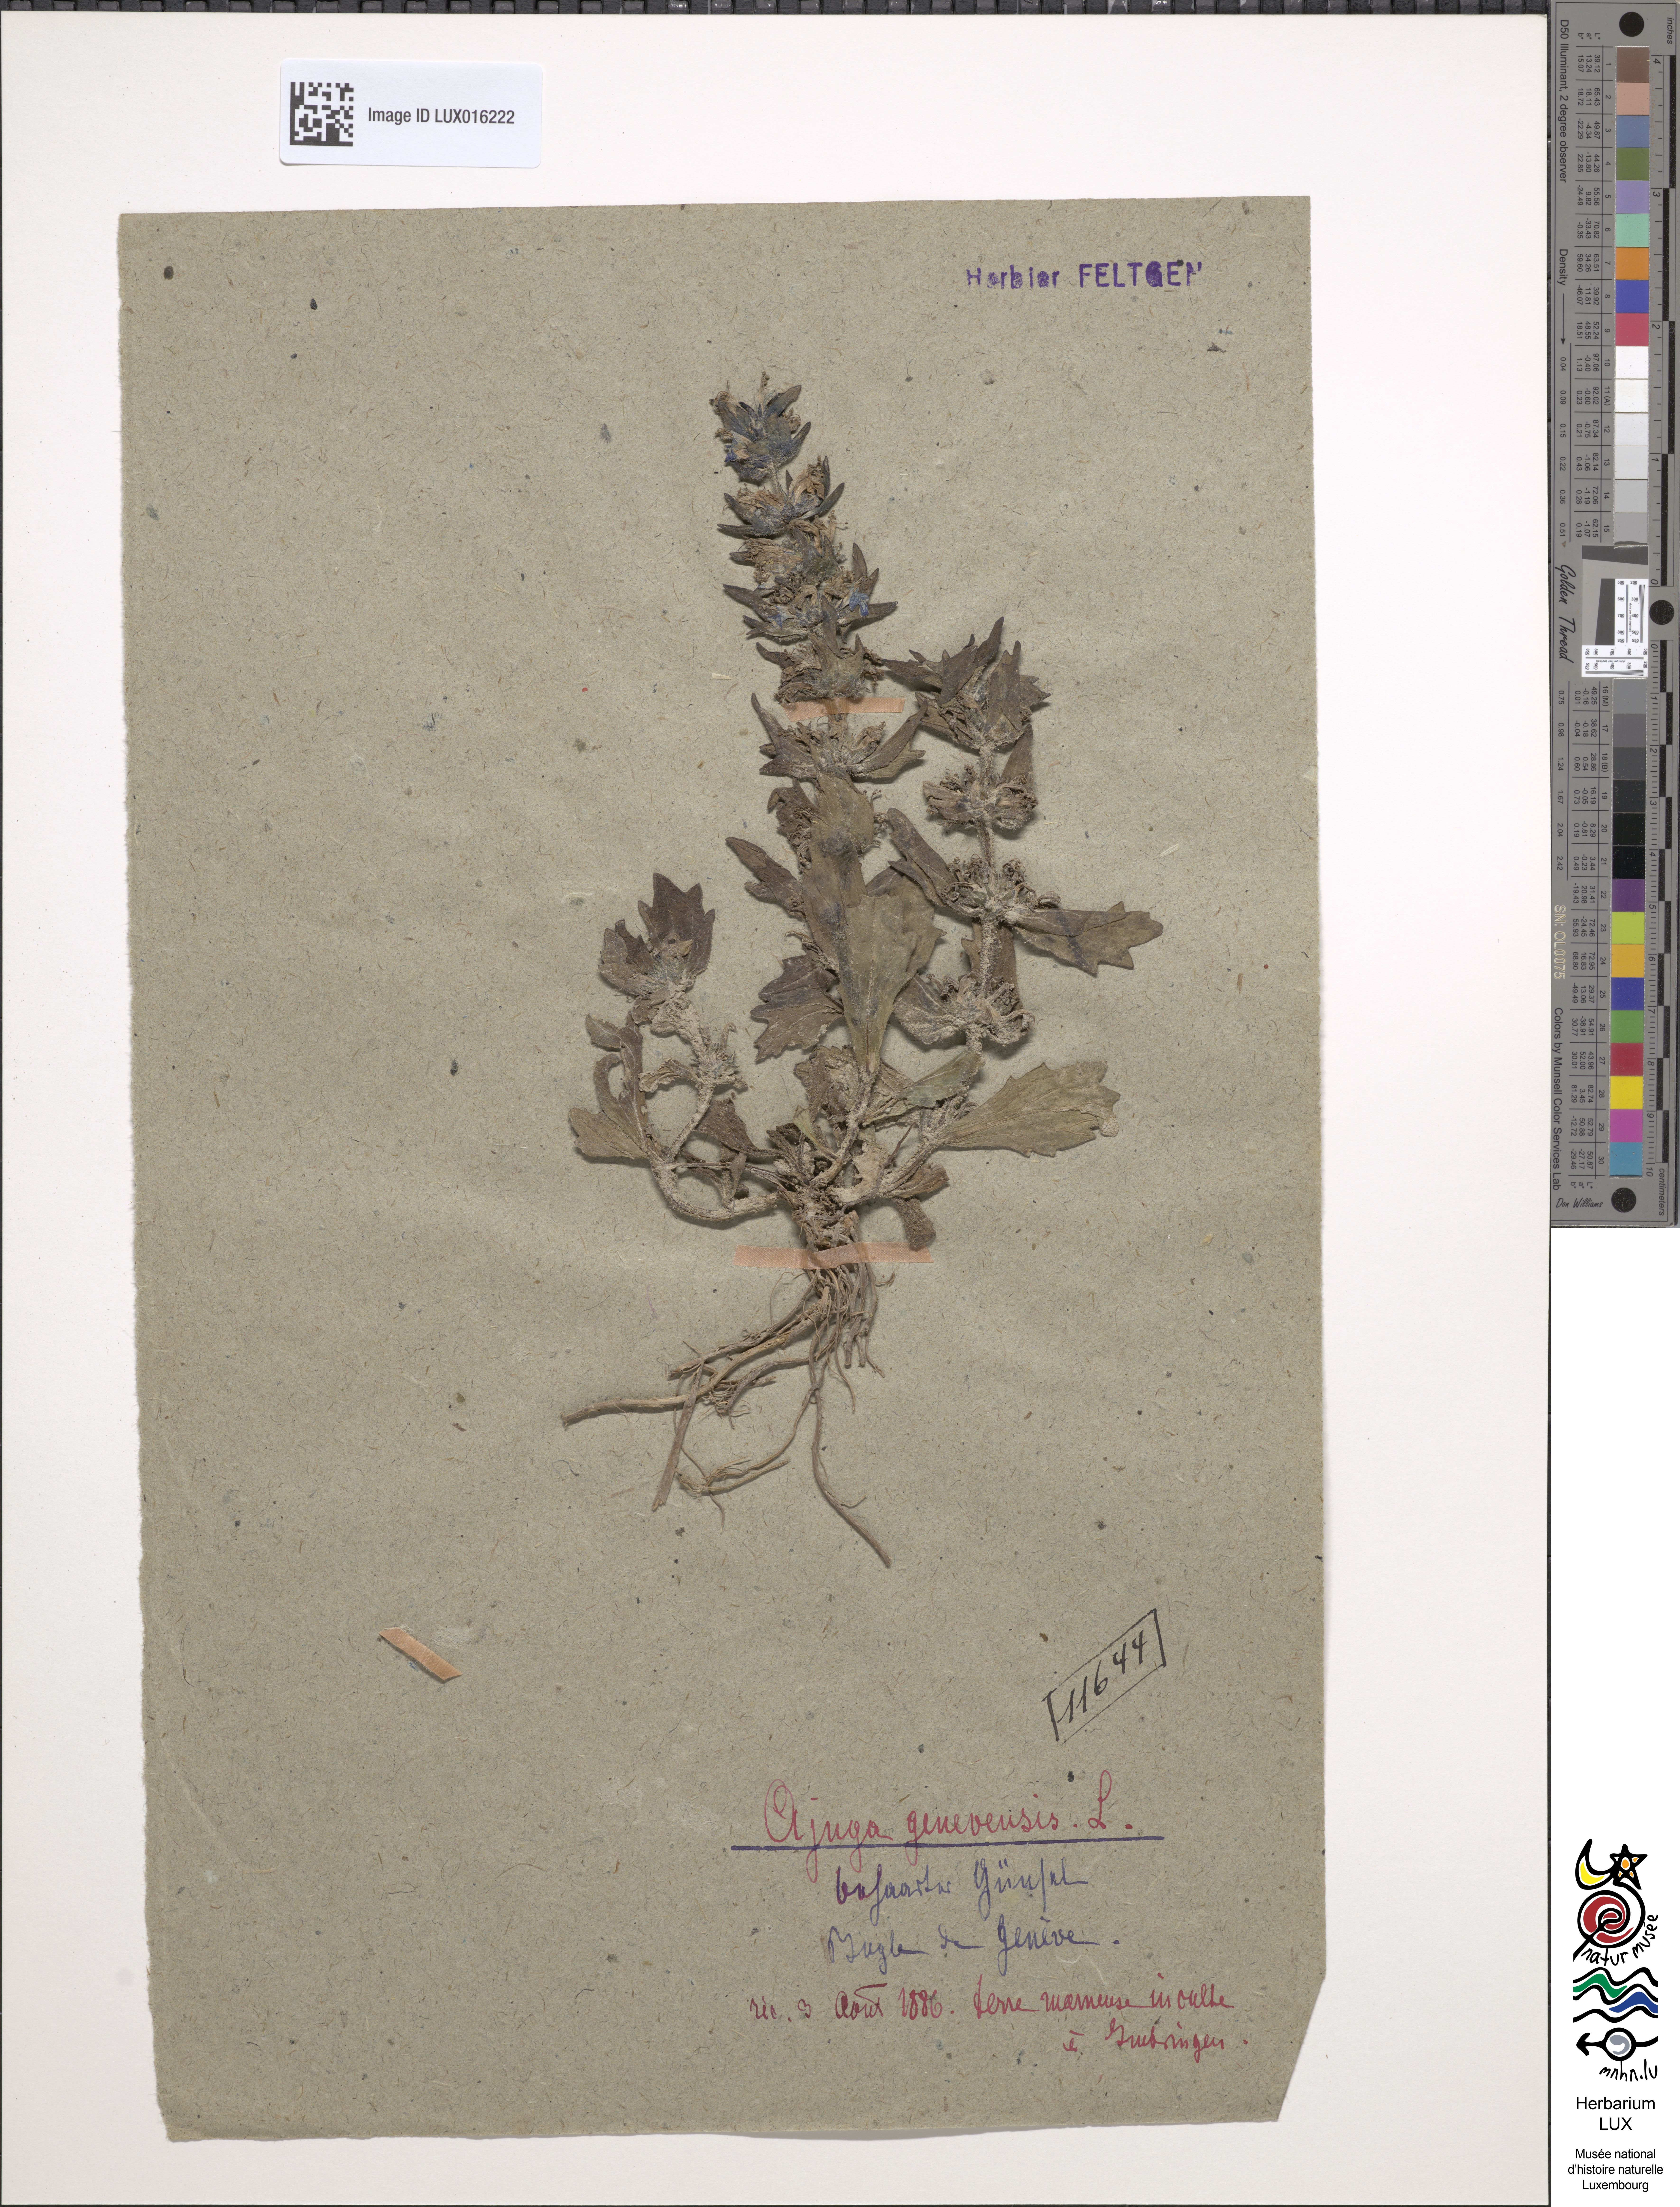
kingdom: Plantae
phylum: Tracheophyta
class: Magnoliopsida
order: Lamiales
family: Lamiaceae
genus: Ajuga
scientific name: Ajuga genevensis
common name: Blue bugle
